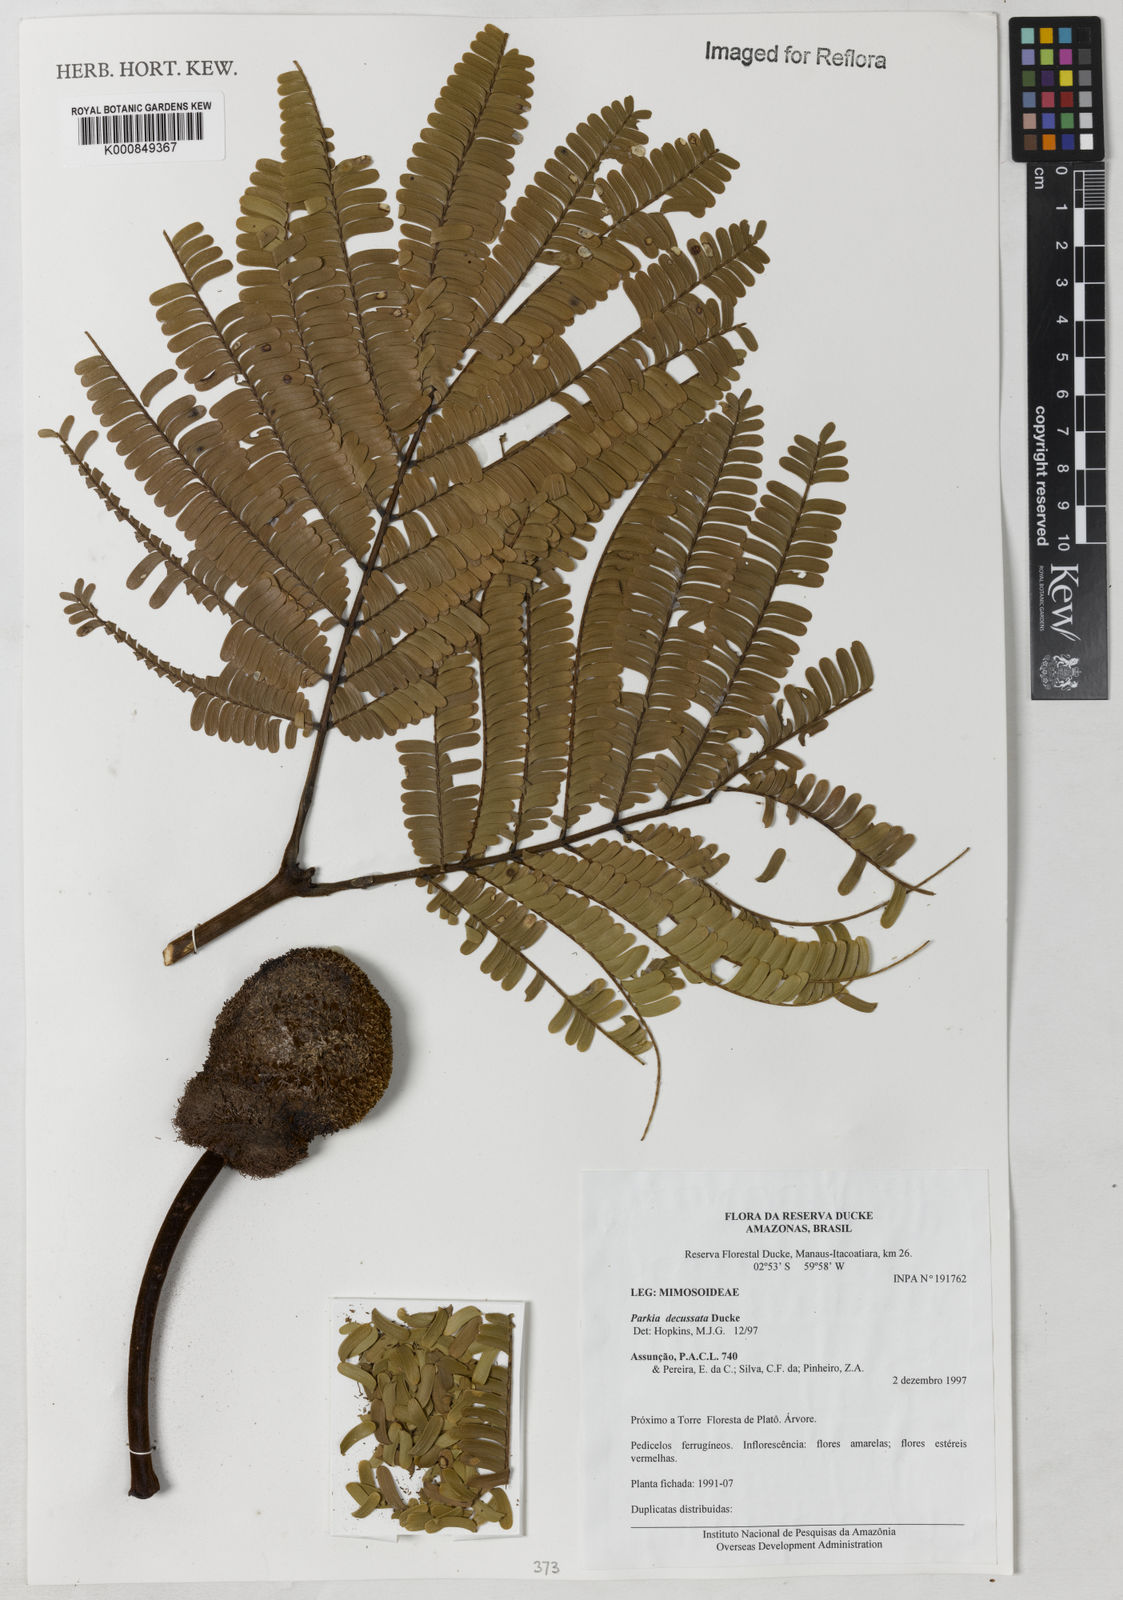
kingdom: Plantae
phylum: Tracheophyta
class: Magnoliopsida
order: Fabales
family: Fabaceae
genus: Parkia
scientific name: Parkia decussata
